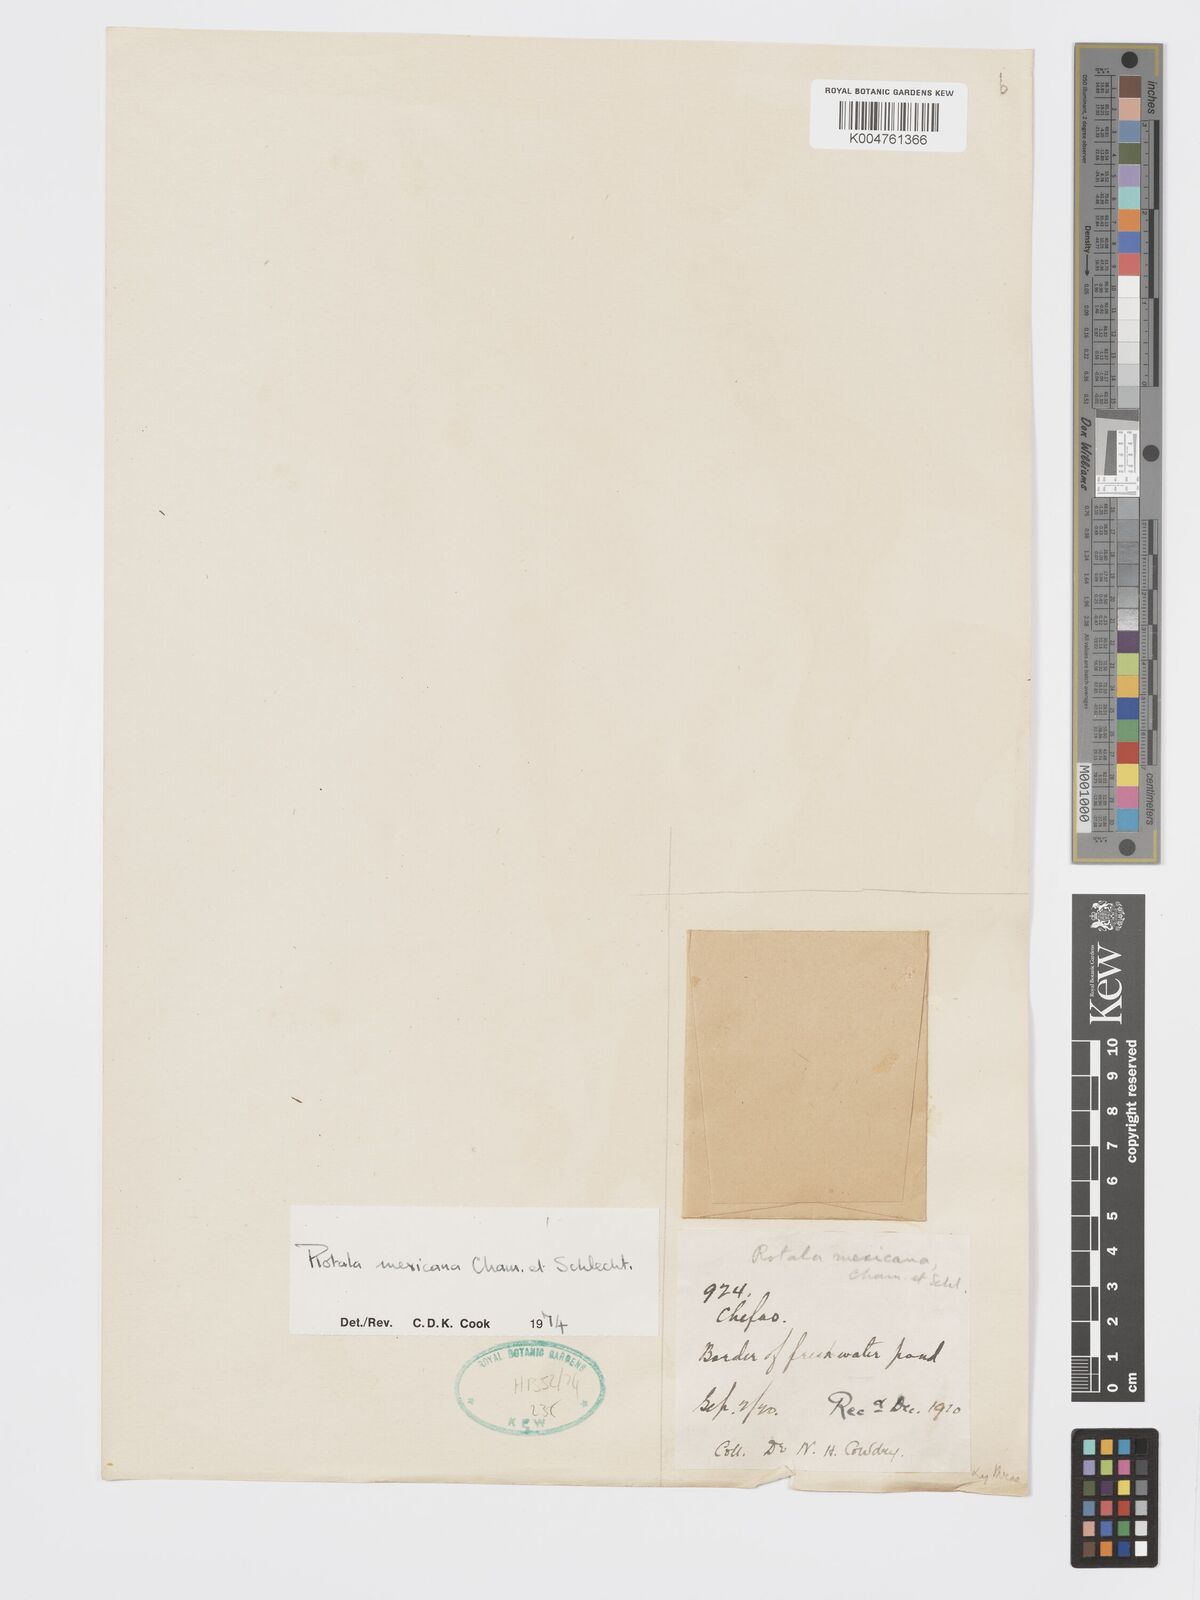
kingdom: Plantae
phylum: Tracheophyta
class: Magnoliopsida
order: Myrtales
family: Lythraceae
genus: Rotala
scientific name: Rotala mexicana
